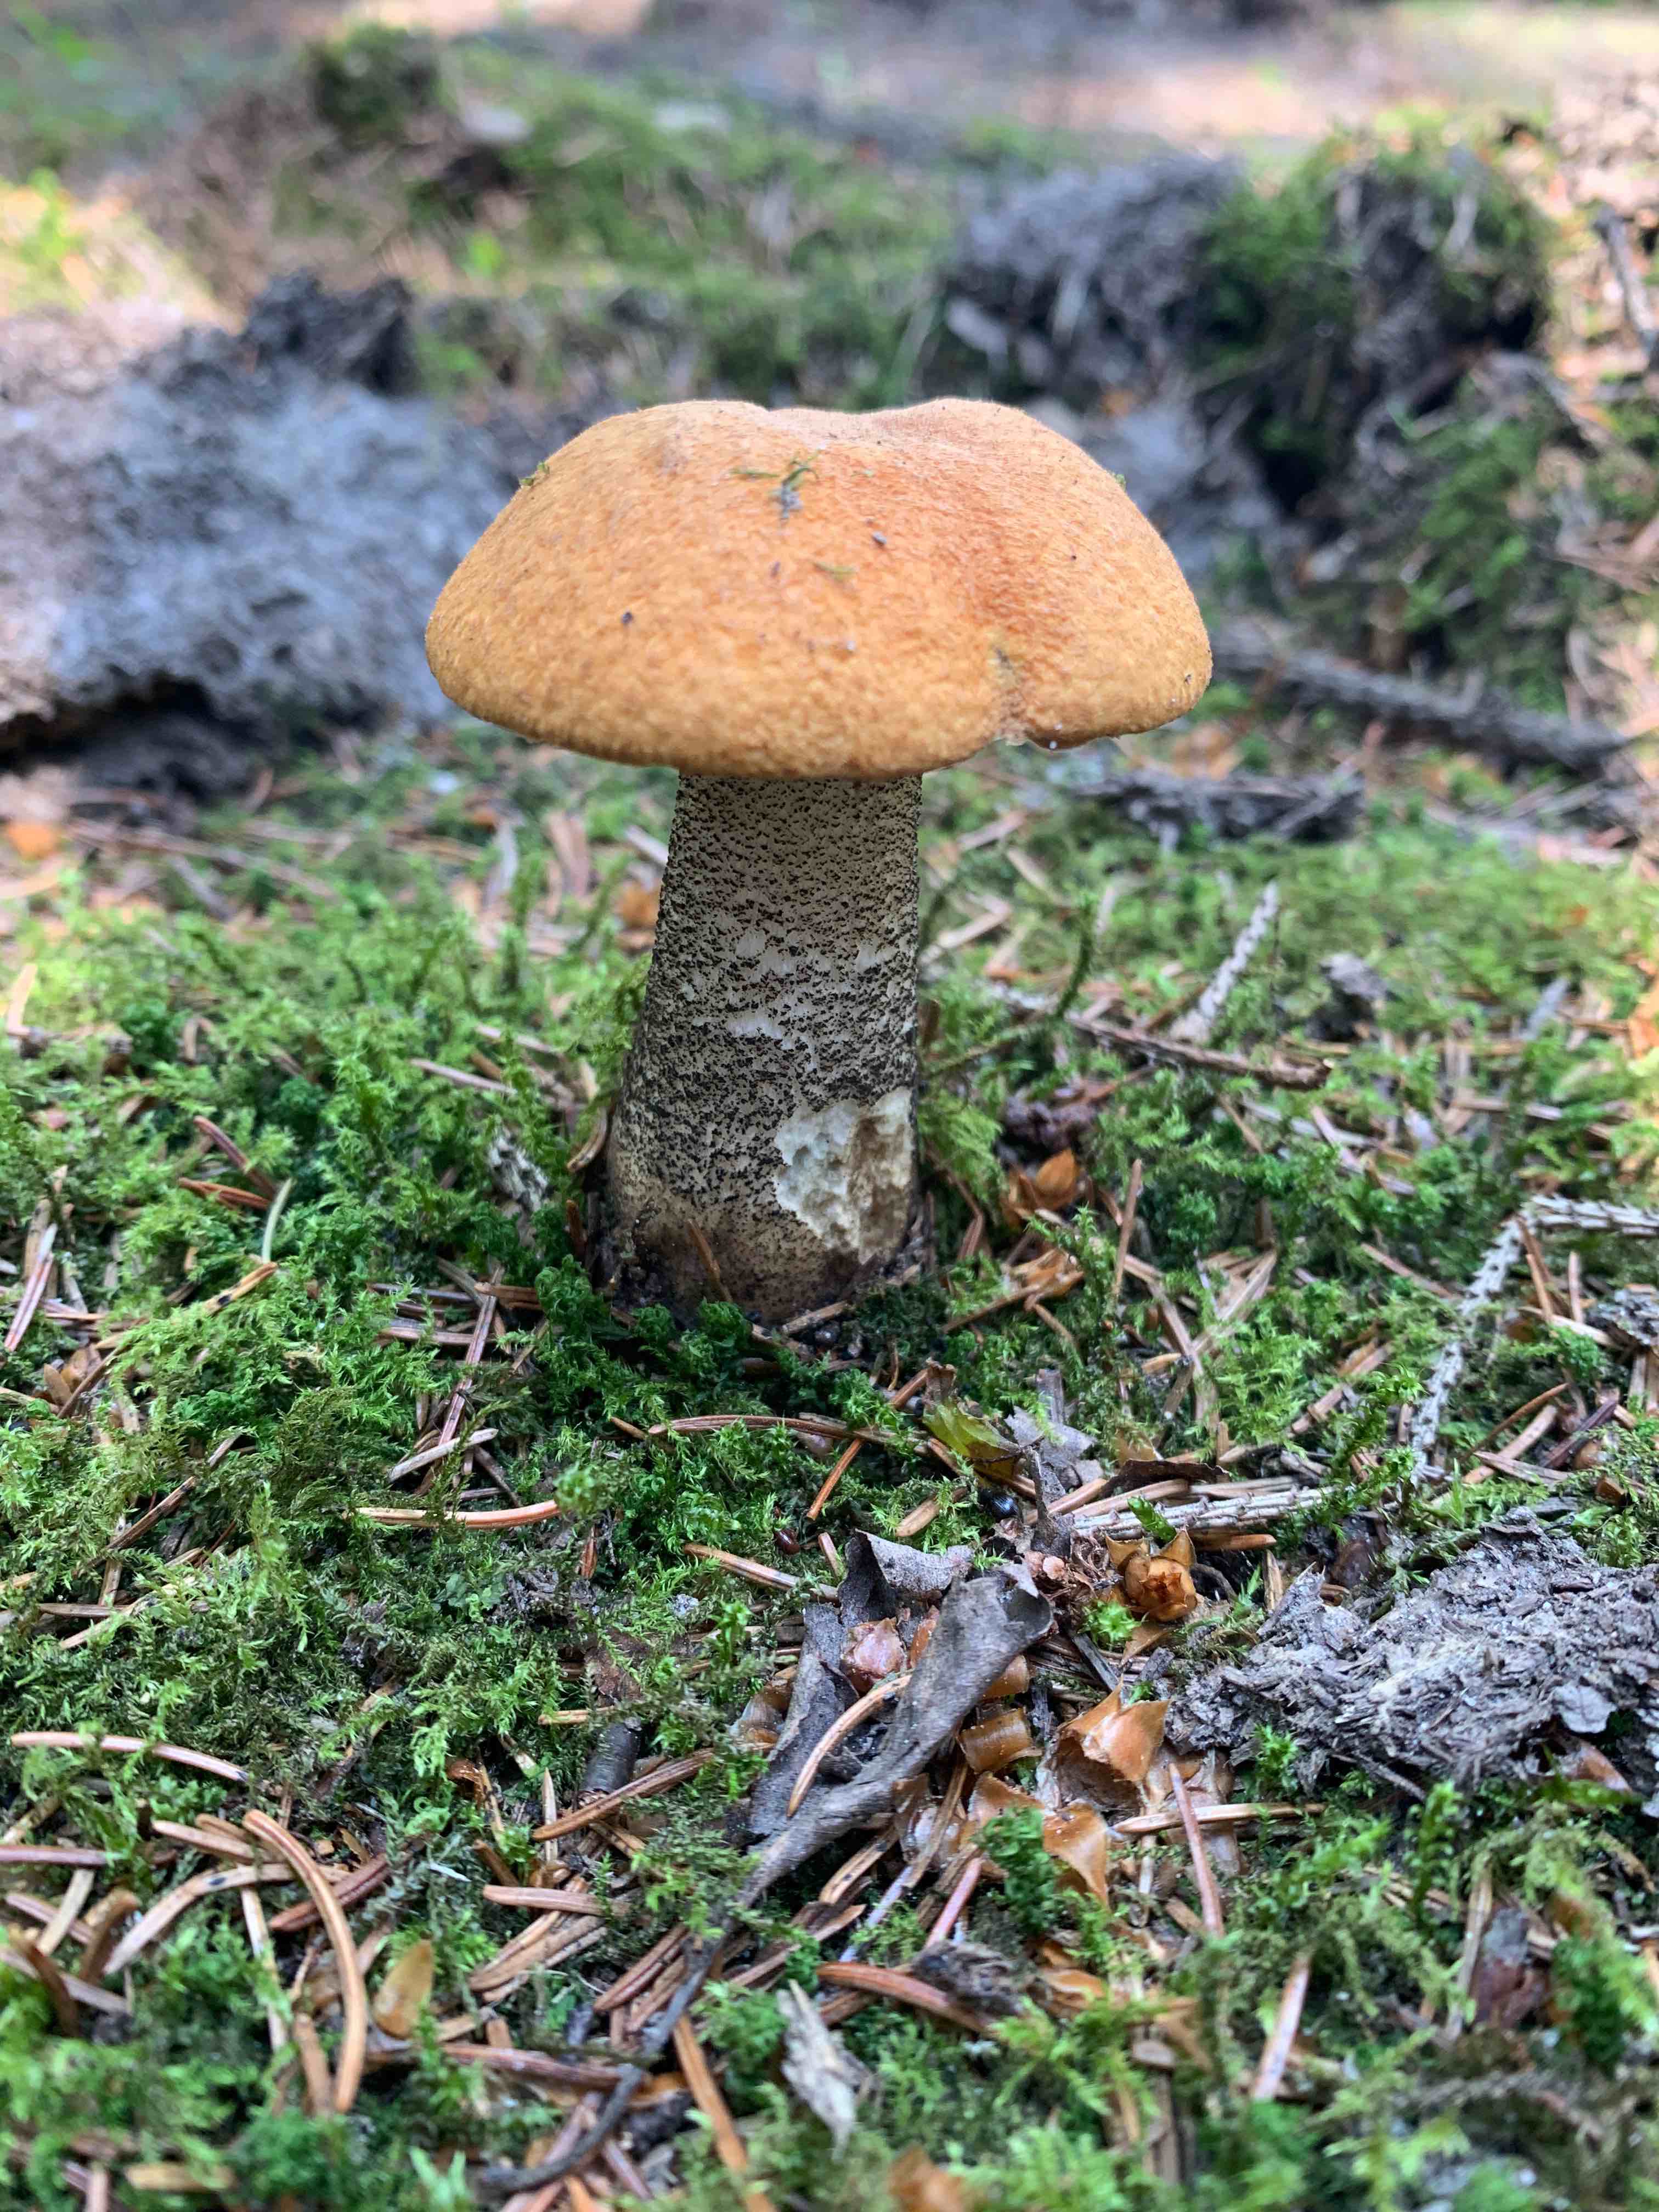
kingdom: Fungi
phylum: Basidiomycota
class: Agaricomycetes
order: Boletales
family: Boletaceae
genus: Leccinum
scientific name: Leccinum versipelle
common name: orange skælrørhat
